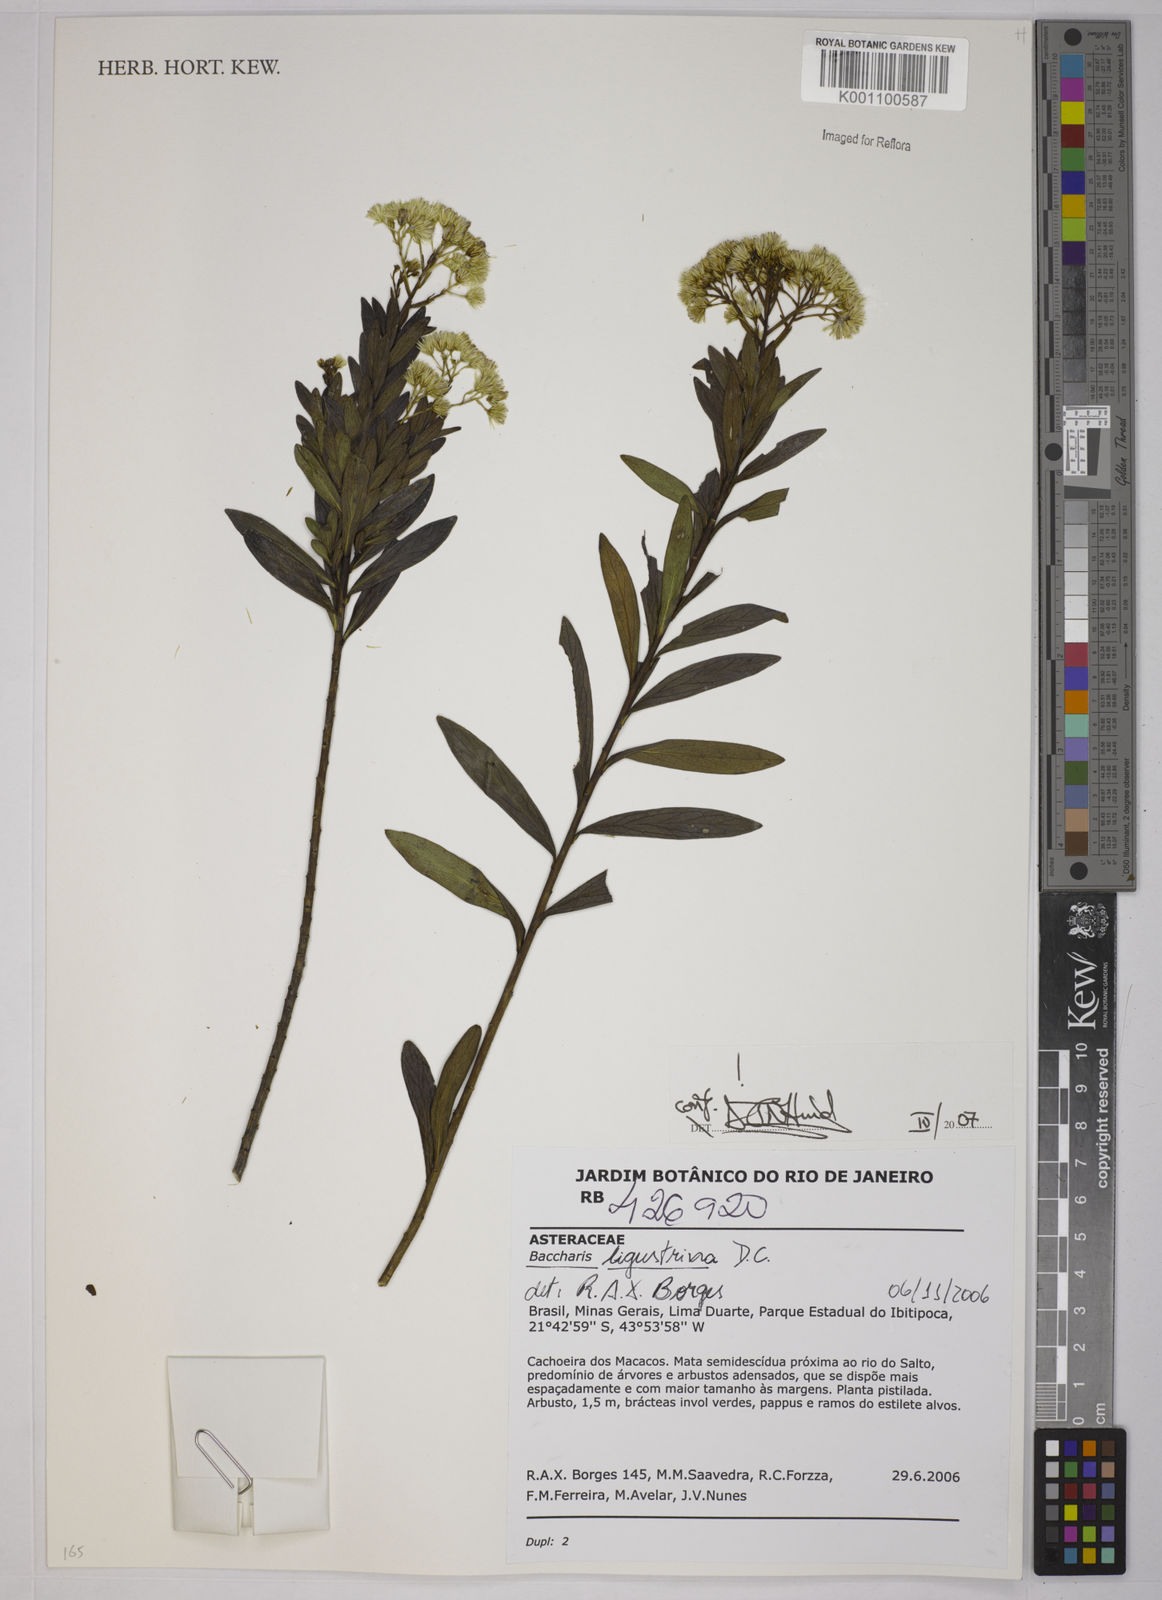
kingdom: Plantae
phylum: Tracheophyta
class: Magnoliopsida
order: Asterales
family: Asteraceae
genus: Baccharis
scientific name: Baccharis ligustrina
